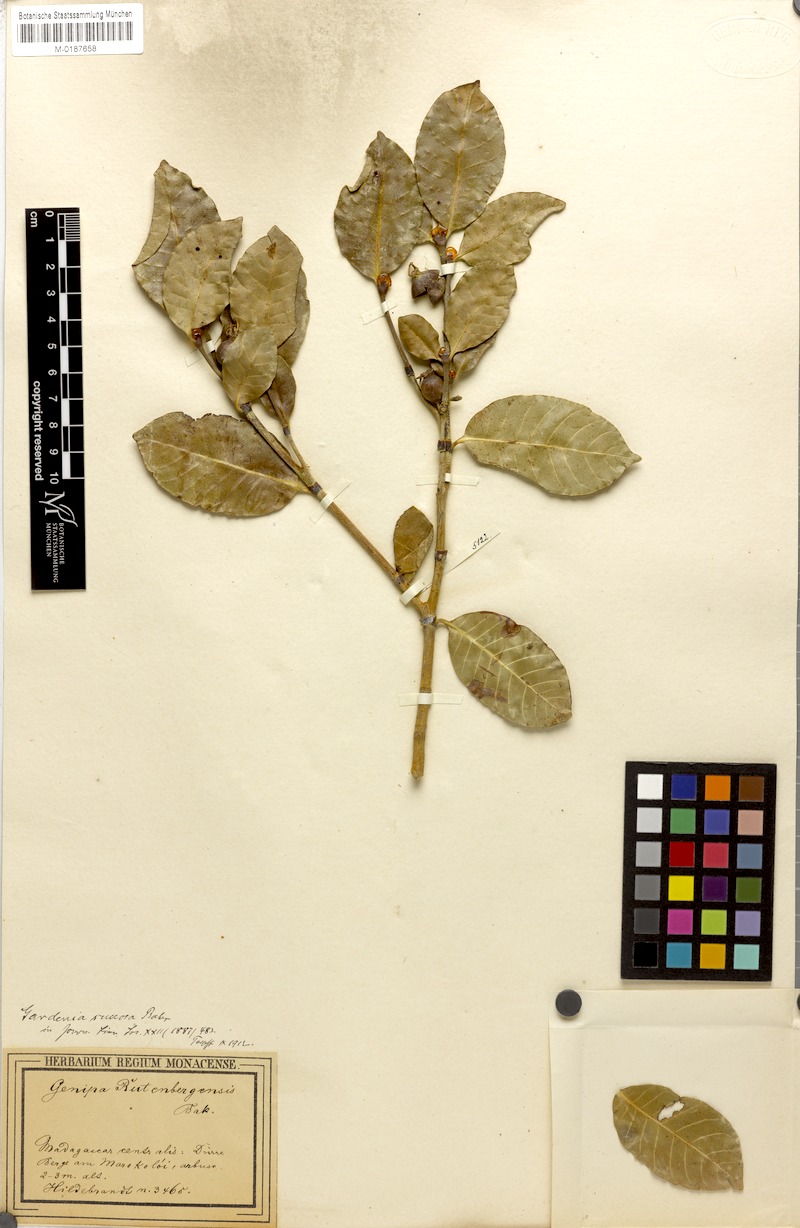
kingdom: Plantae
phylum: Tracheophyta
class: Magnoliopsida
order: Gentianales
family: Rubiaceae
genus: Gardenia
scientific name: Gardenia rutenbergiana
